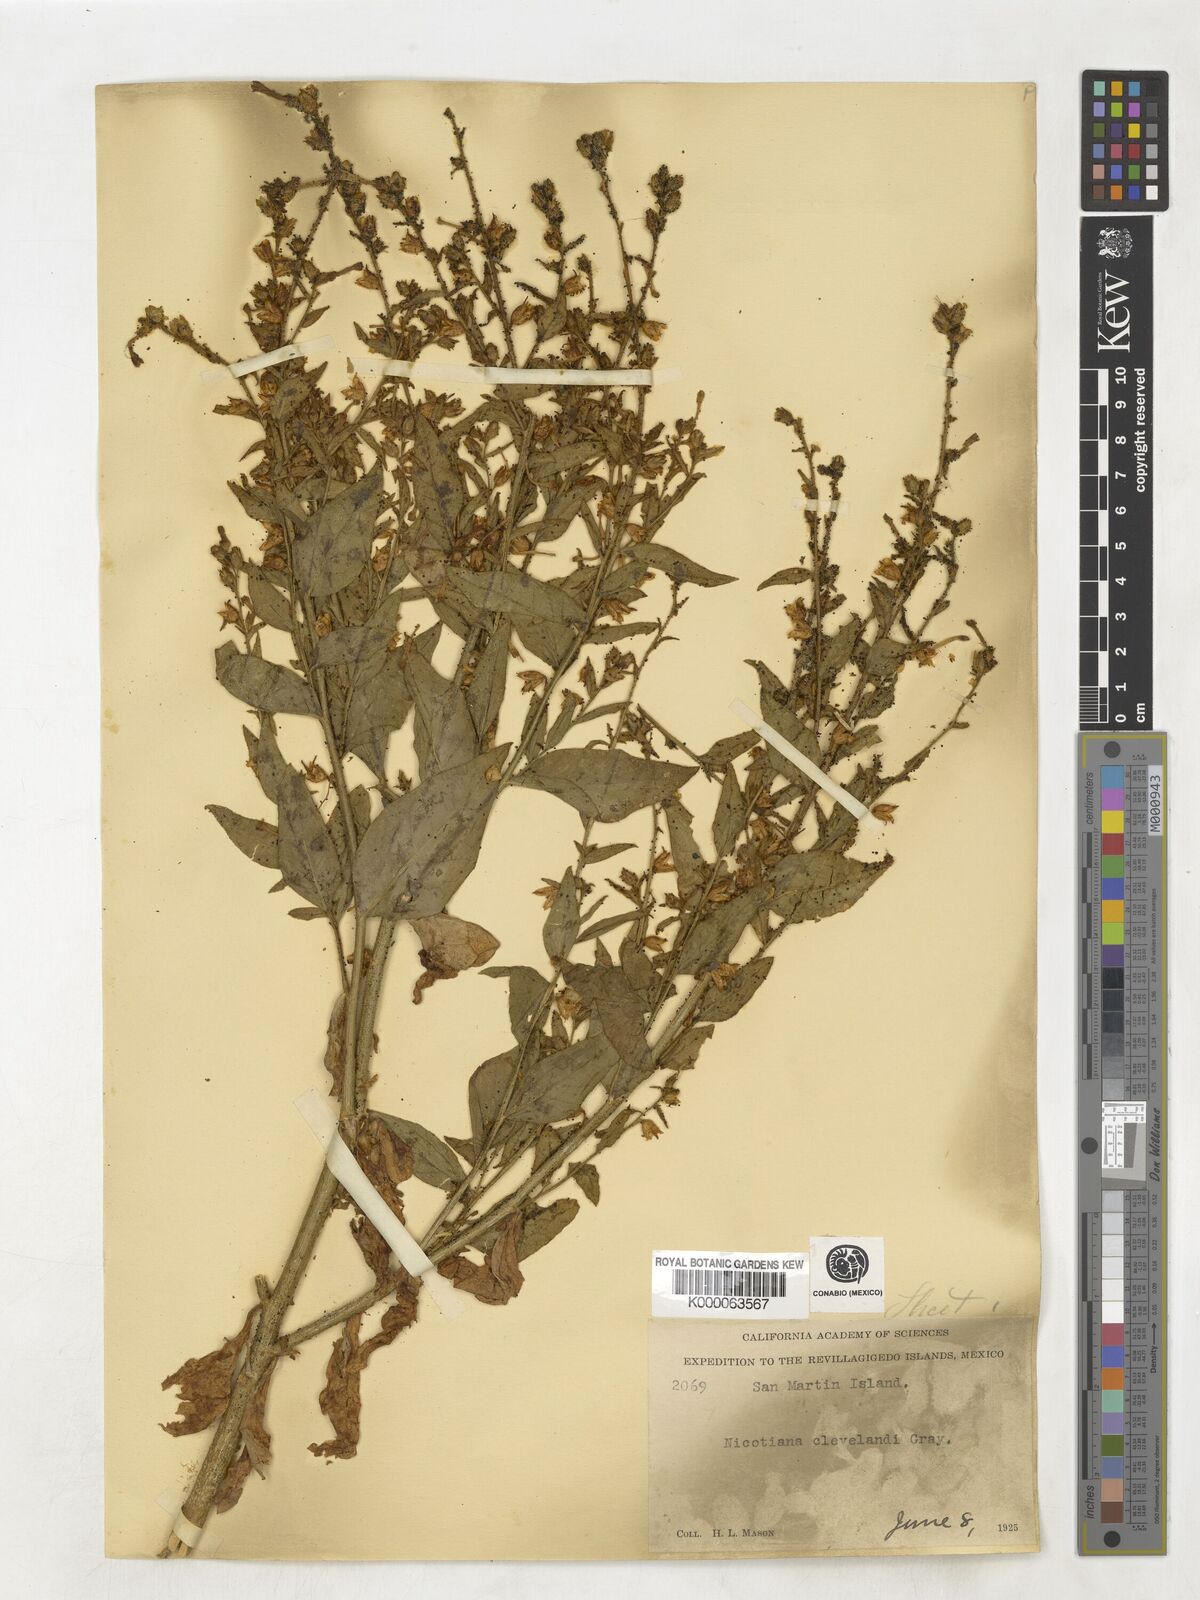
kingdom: Plantae
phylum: Tracheophyta
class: Magnoliopsida
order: Solanales
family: Solanaceae
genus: Nicotiana
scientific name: Nicotiana clevelandii
